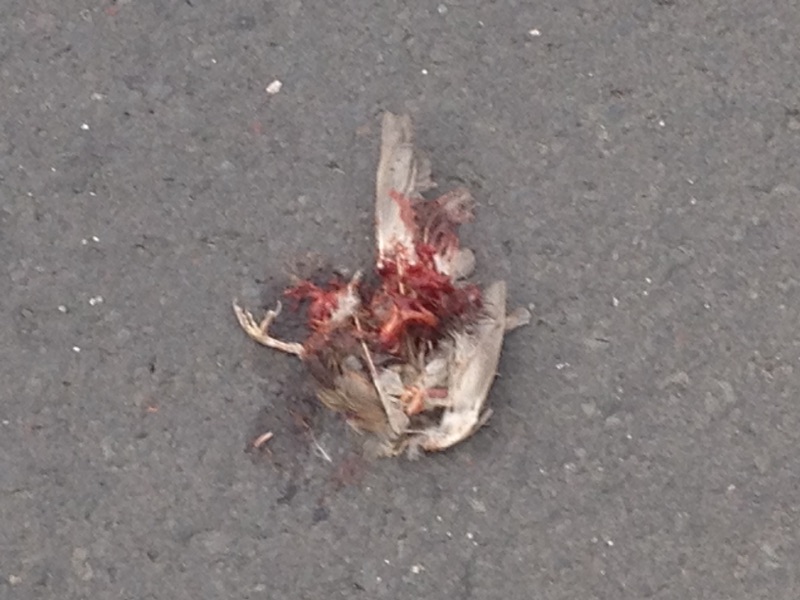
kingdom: Animalia
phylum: Chordata
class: Aves
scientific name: Aves
